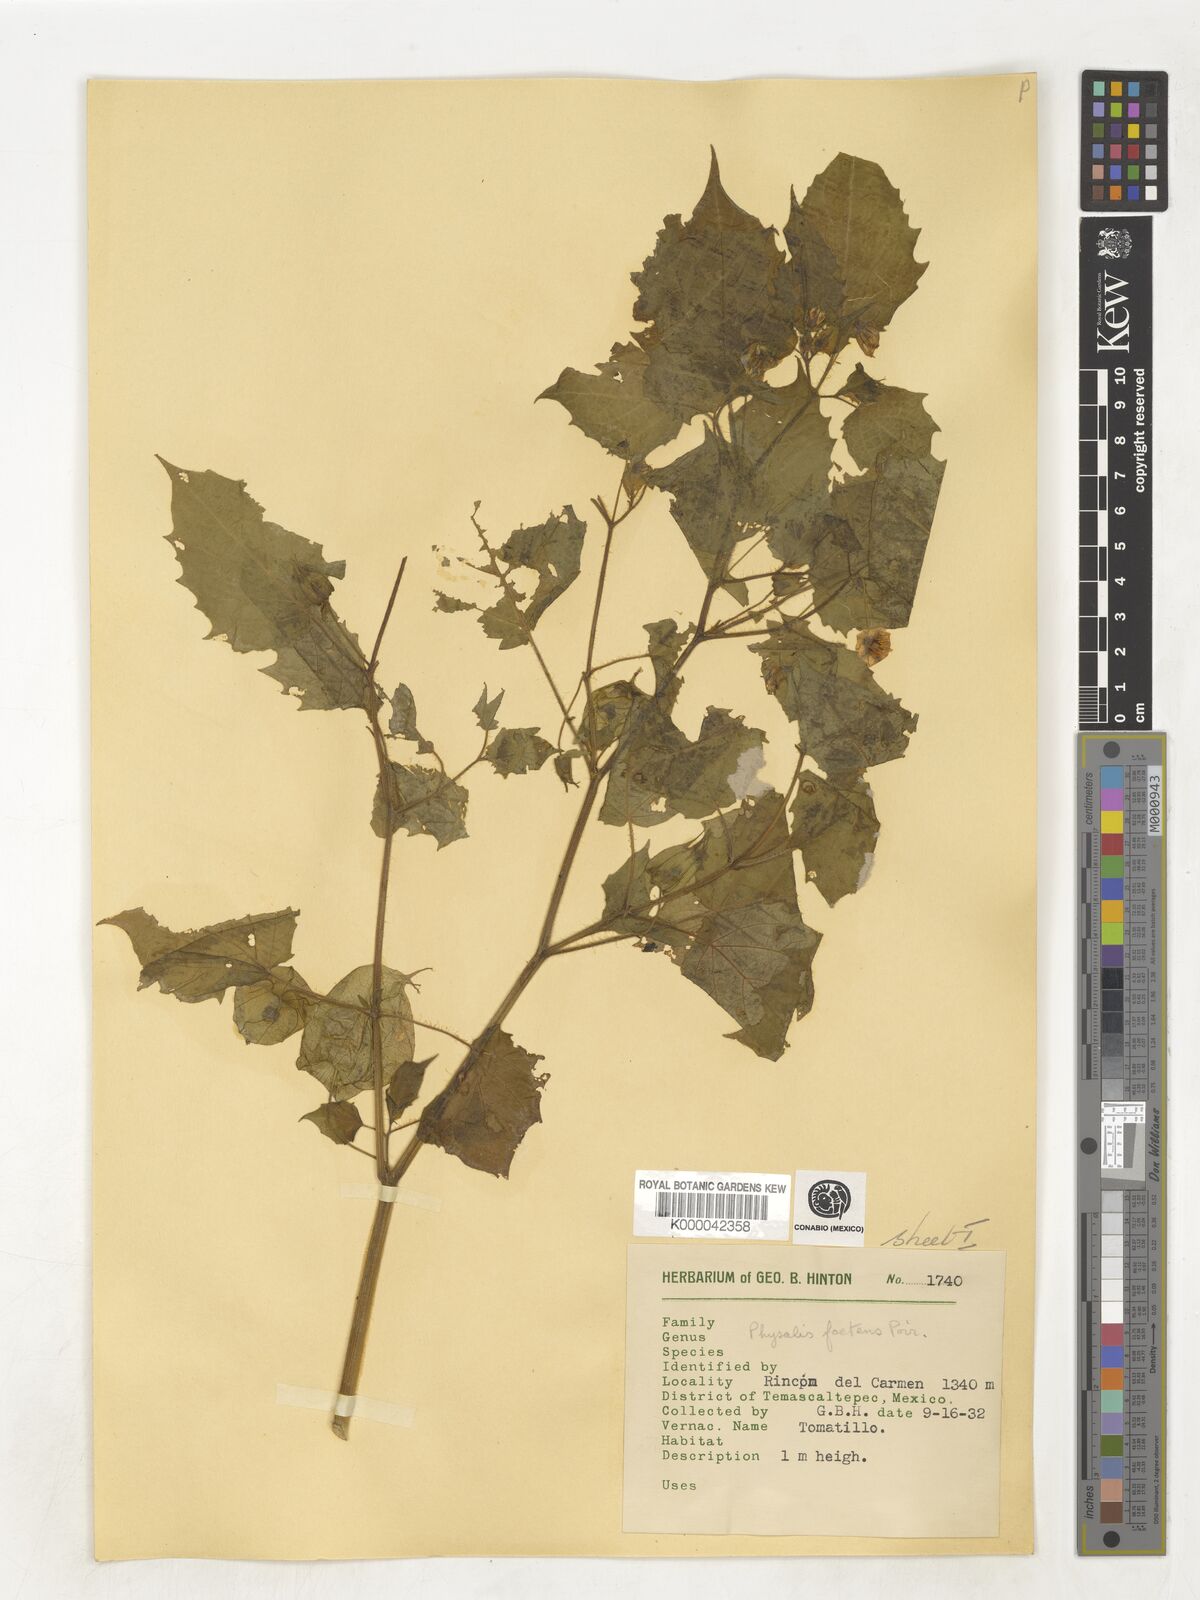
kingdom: Plantae
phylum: Tracheophyta
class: Magnoliopsida
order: Solanales
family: Solanaceae
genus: Physalis
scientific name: Physalis pubescens
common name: Downy ground-cherry
